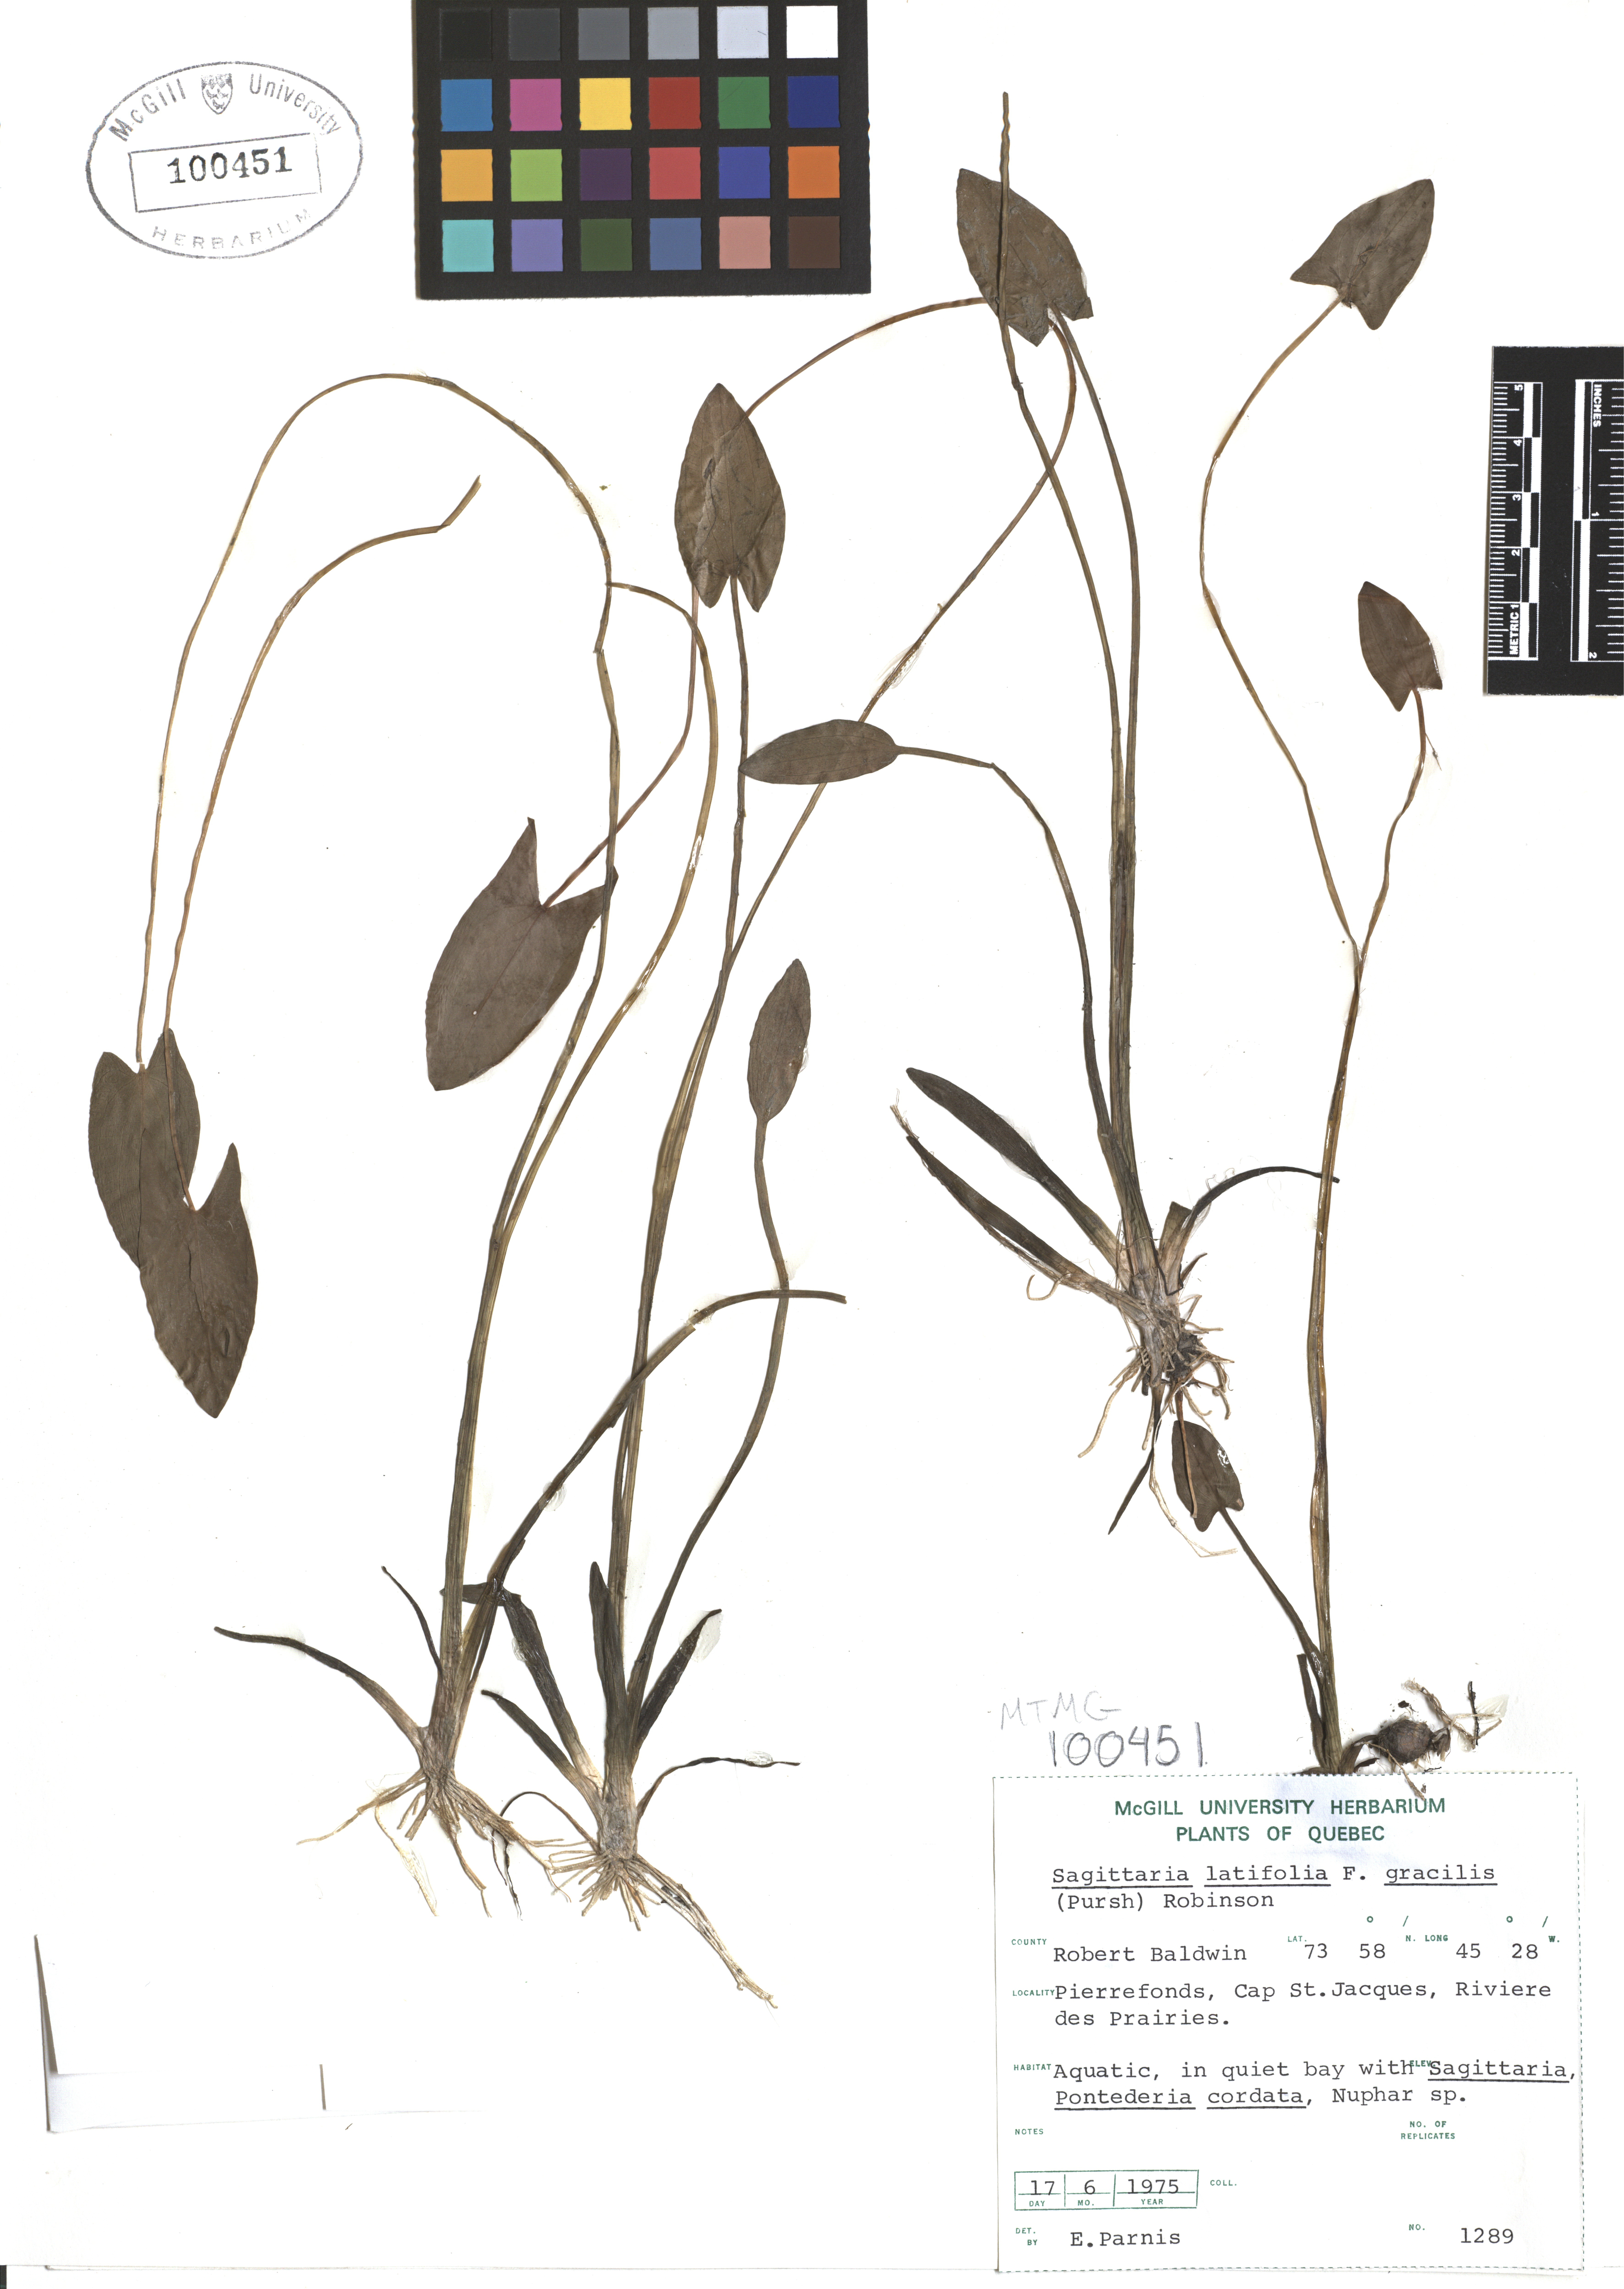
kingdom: Plantae
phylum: Tracheophyta
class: Liliopsida
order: Alismatales
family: Alismataceae
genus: Sagittaria
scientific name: Sagittaria latifolia
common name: Duck-potato
